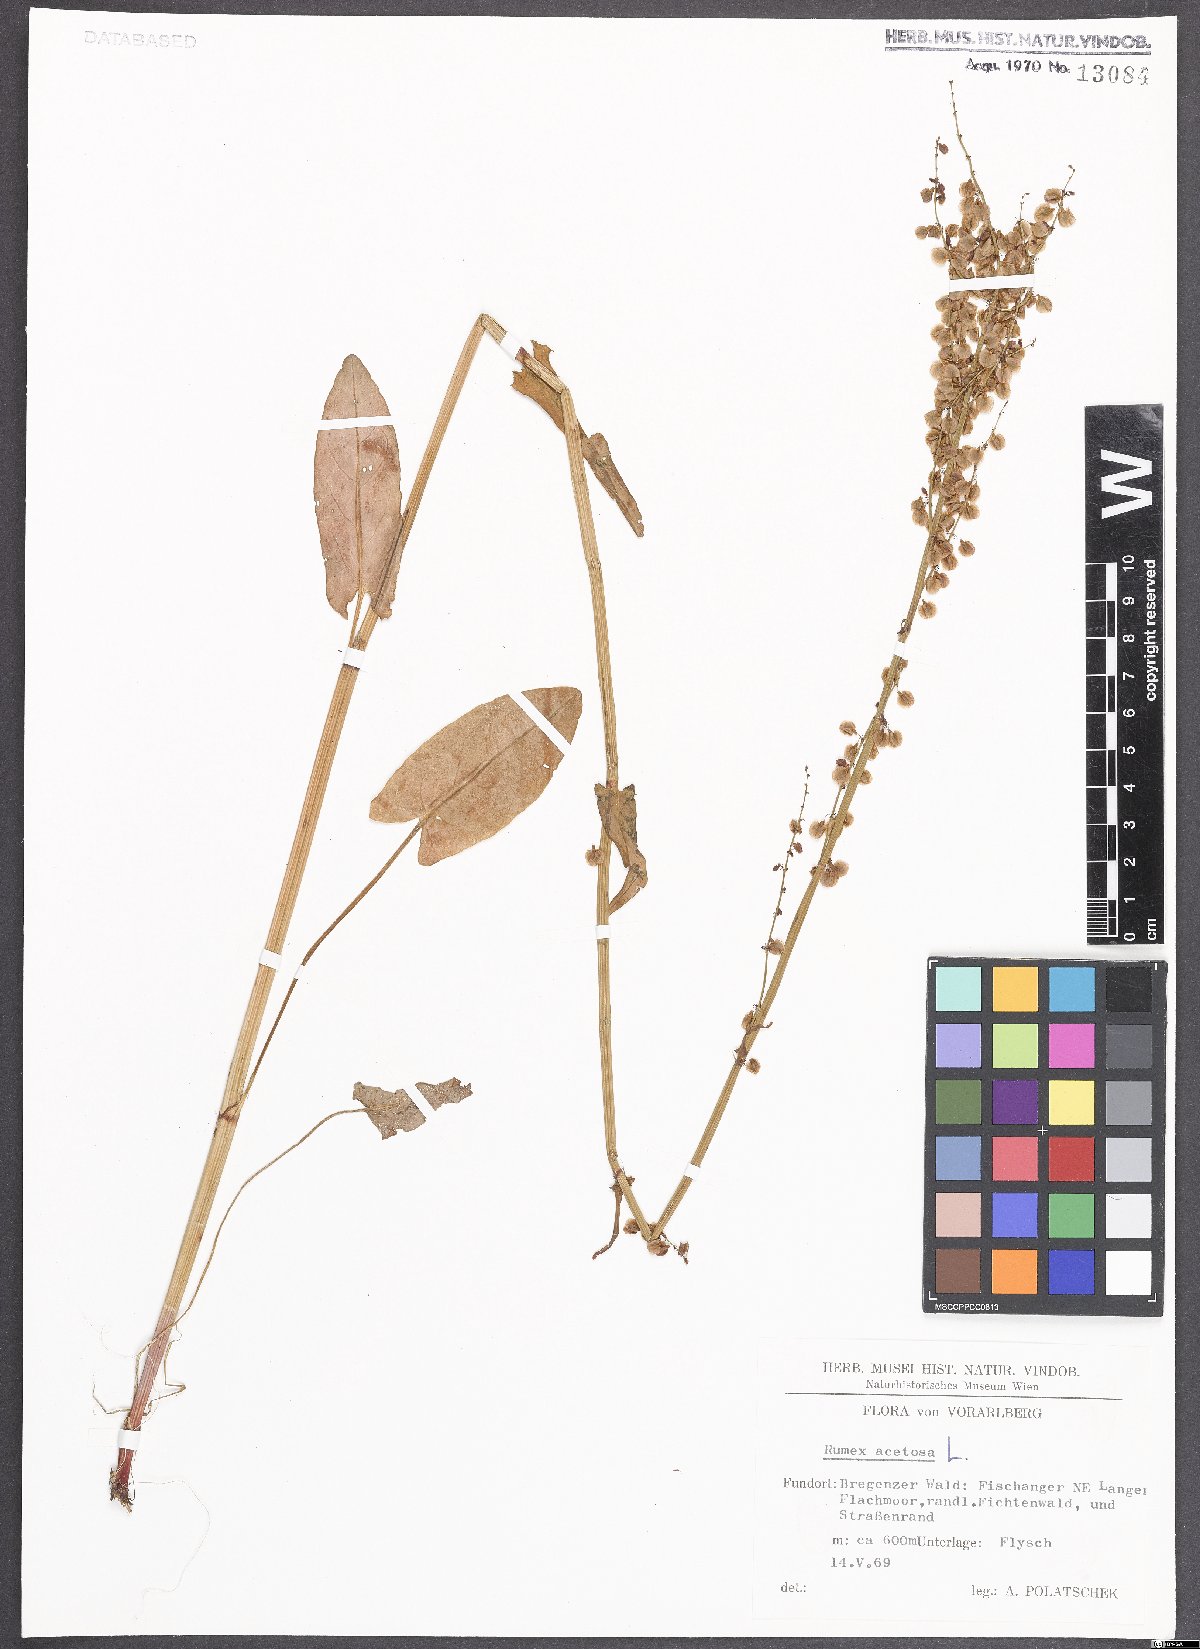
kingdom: Plantae
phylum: Tracheophyta
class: Magnoliopsida
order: Caryophyllales
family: Polygonaceae
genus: Rumex
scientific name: Rumex acetosa
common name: Garden sorrel
